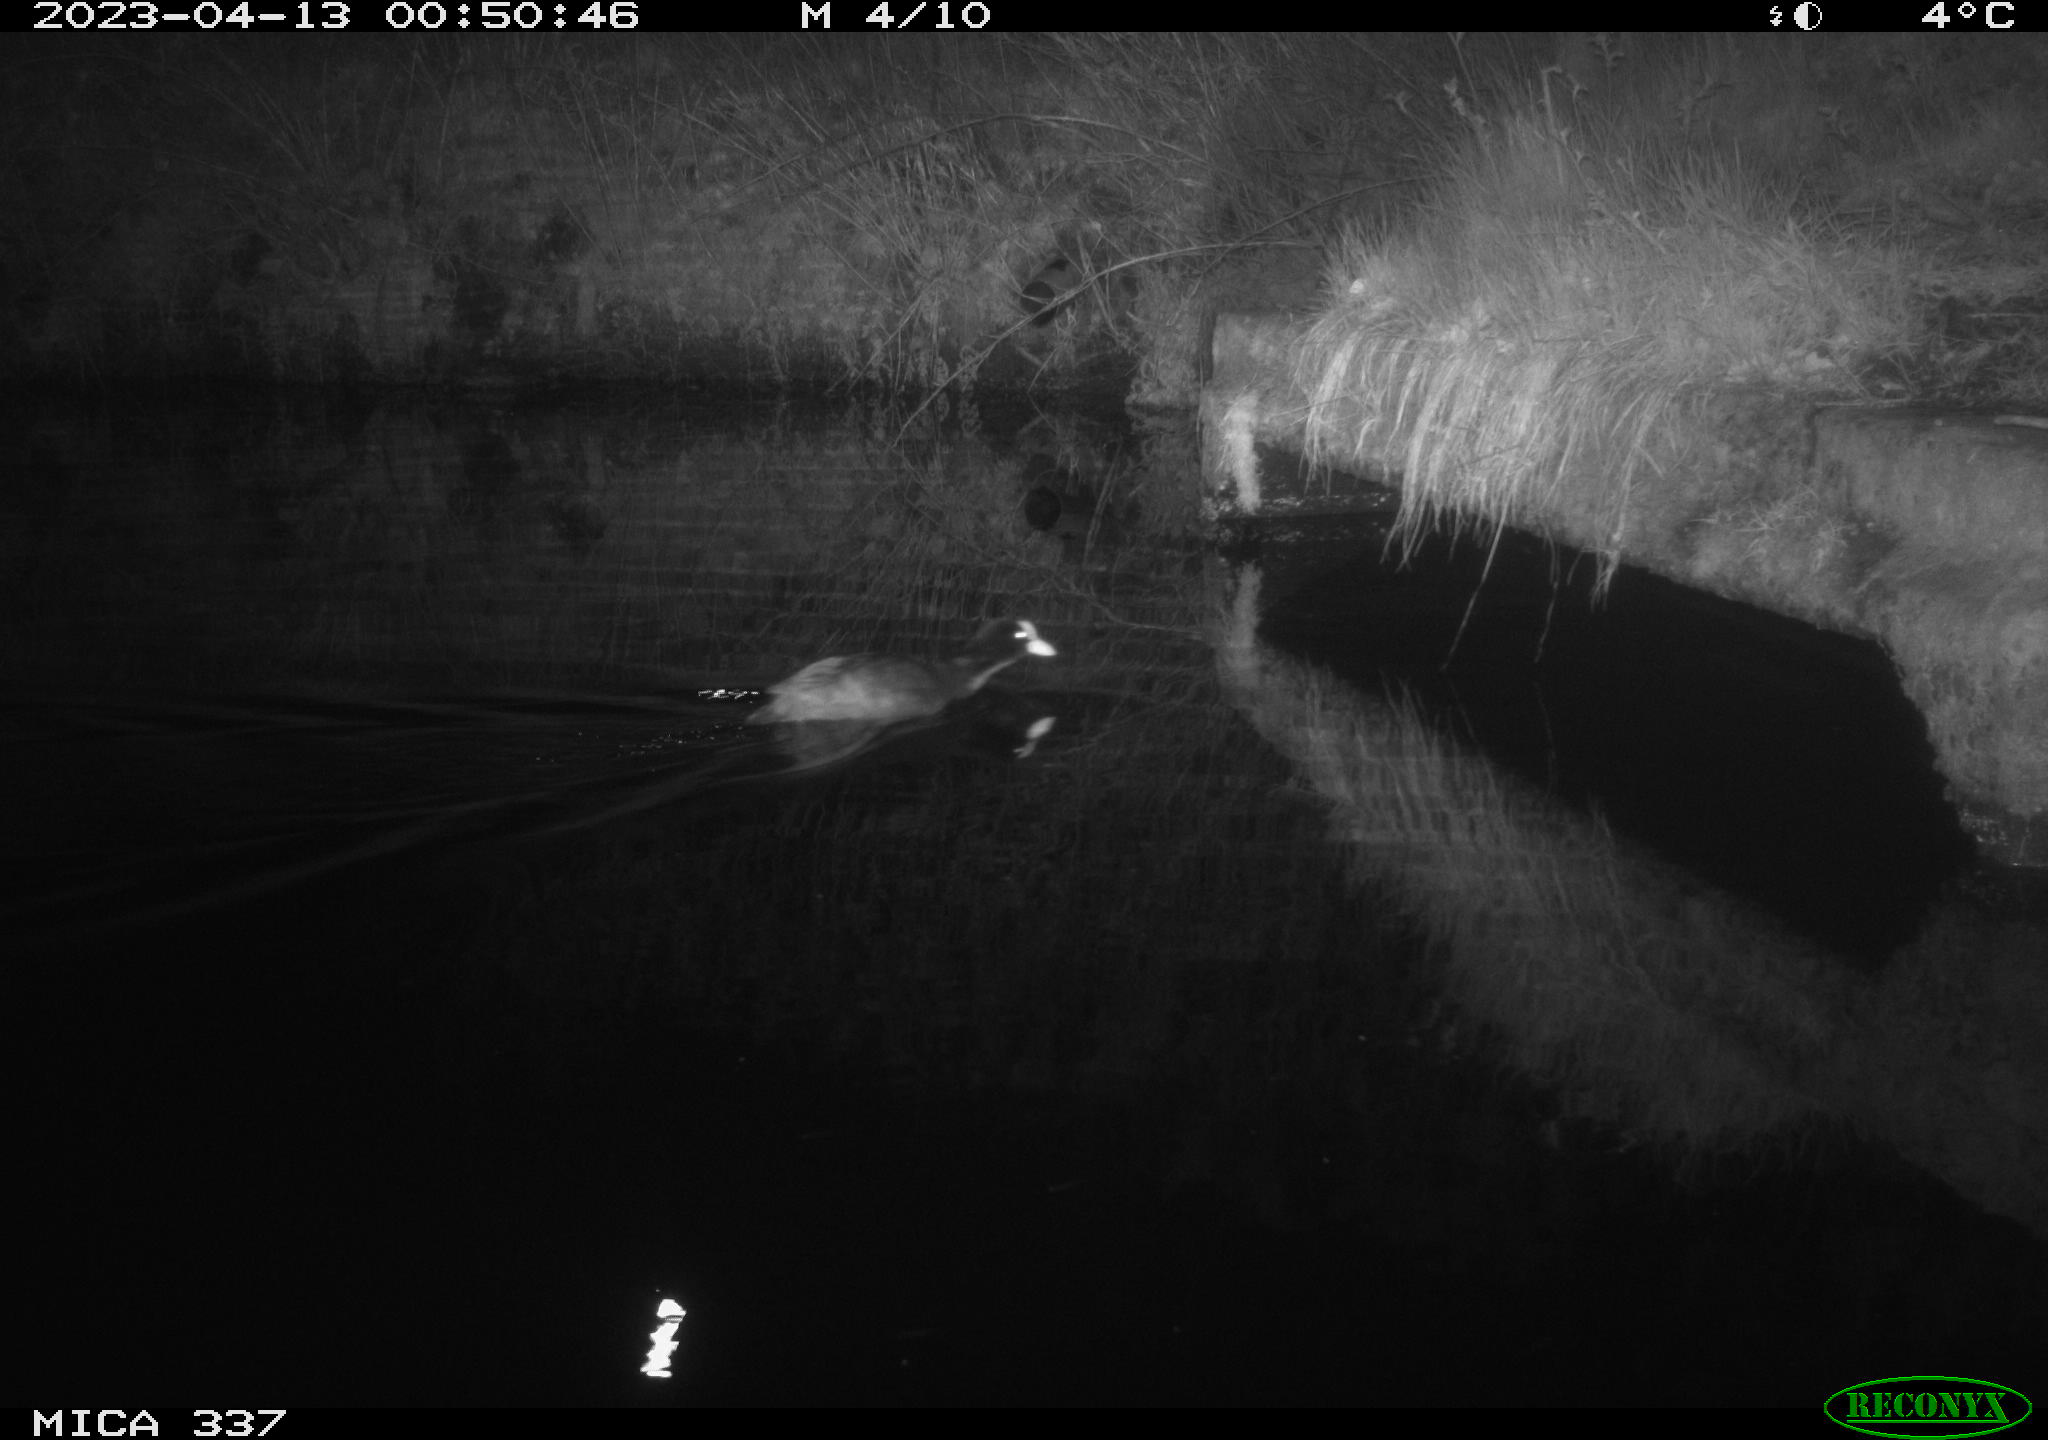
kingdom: Animalia
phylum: Chordata
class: Aves
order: Gruiformes
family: Rallidae
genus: Fulica
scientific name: Fulica atra
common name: Eurasian coot
